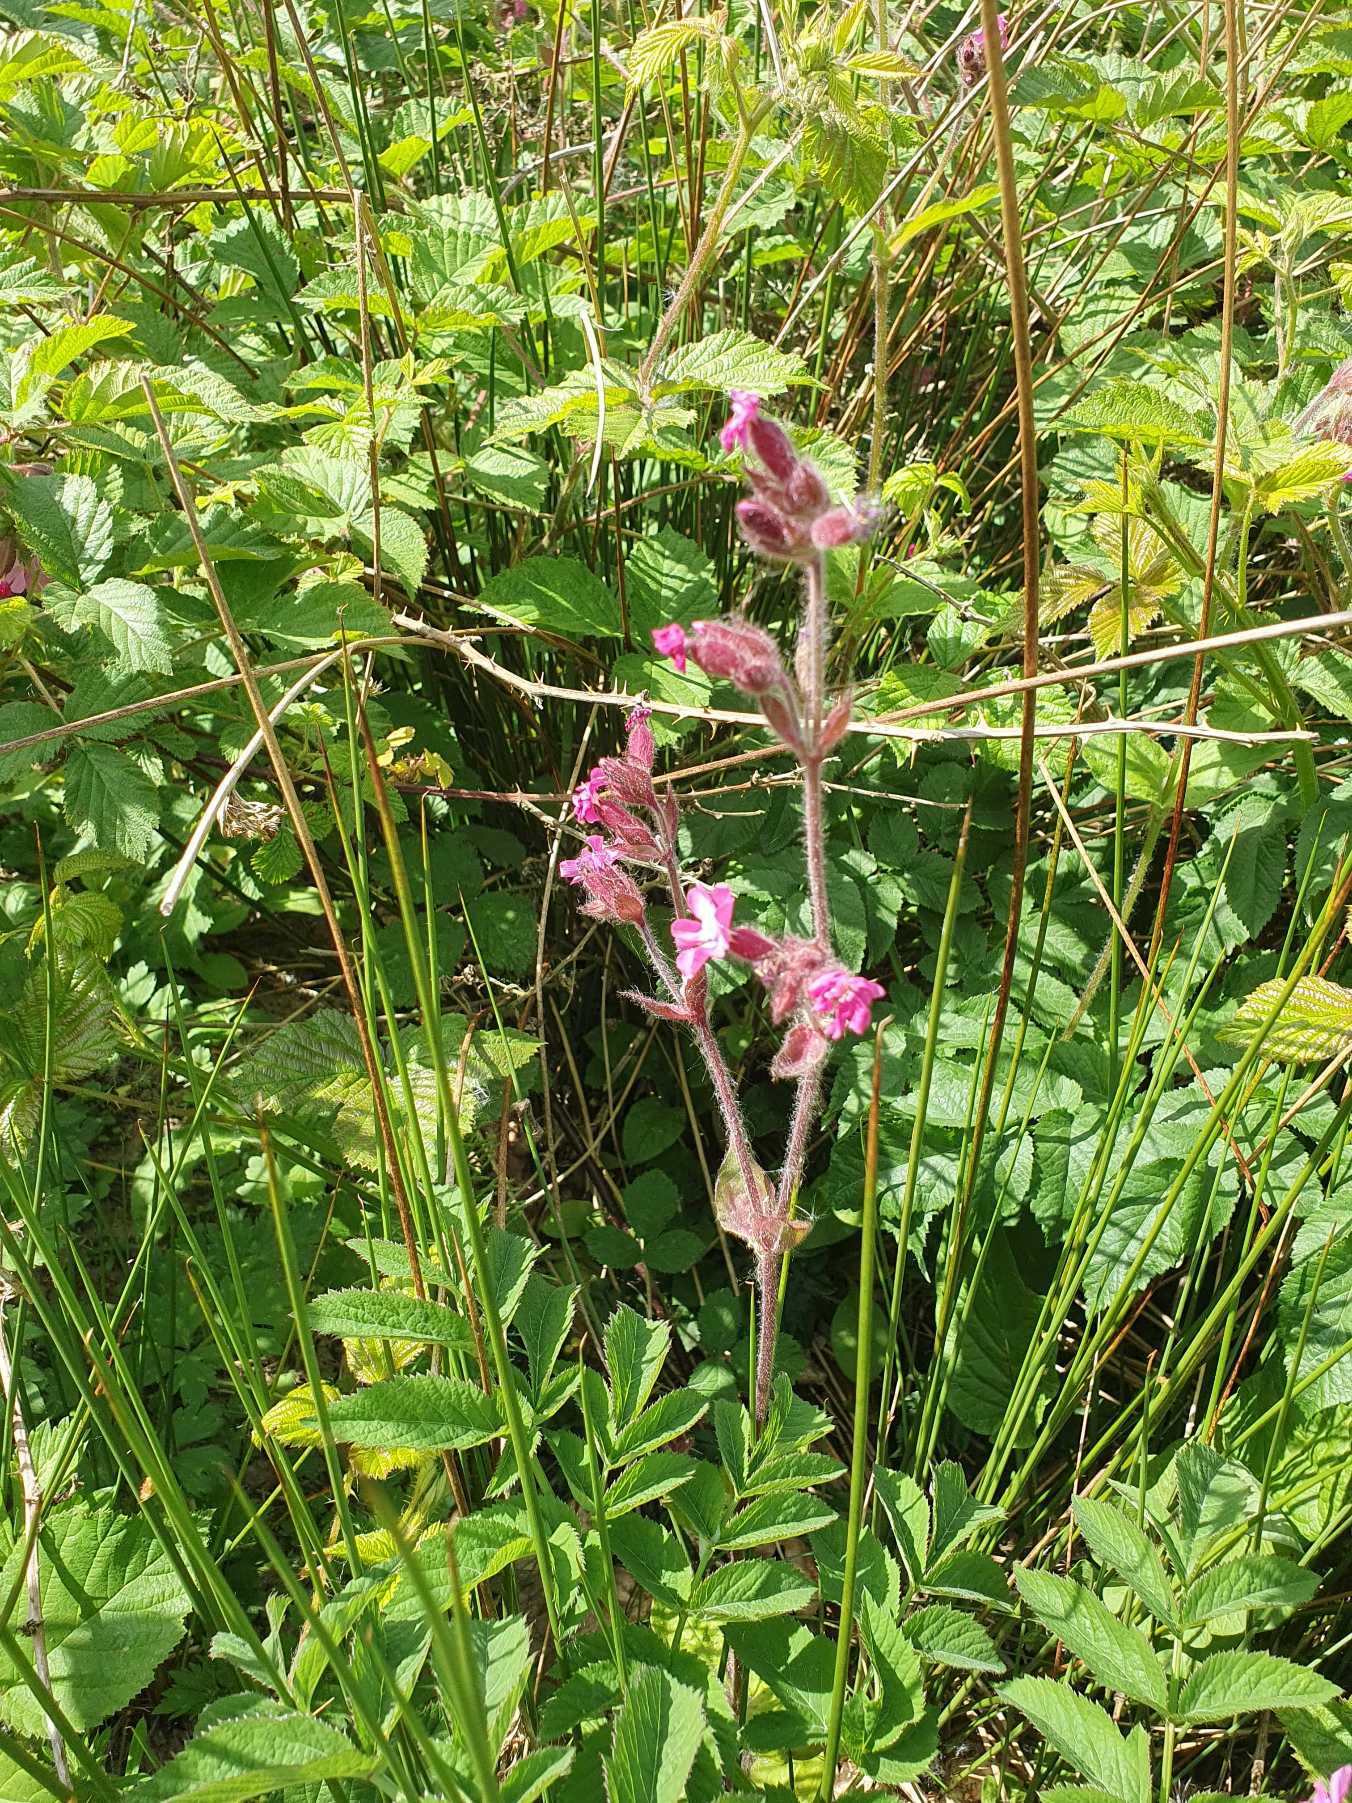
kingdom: Plantae
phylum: Tracheophyta
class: Magnoliopsida
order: Caryophyllales
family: Caryophyllaceae
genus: Silene
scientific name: Silene dioica
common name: Dagpragtstjerne
